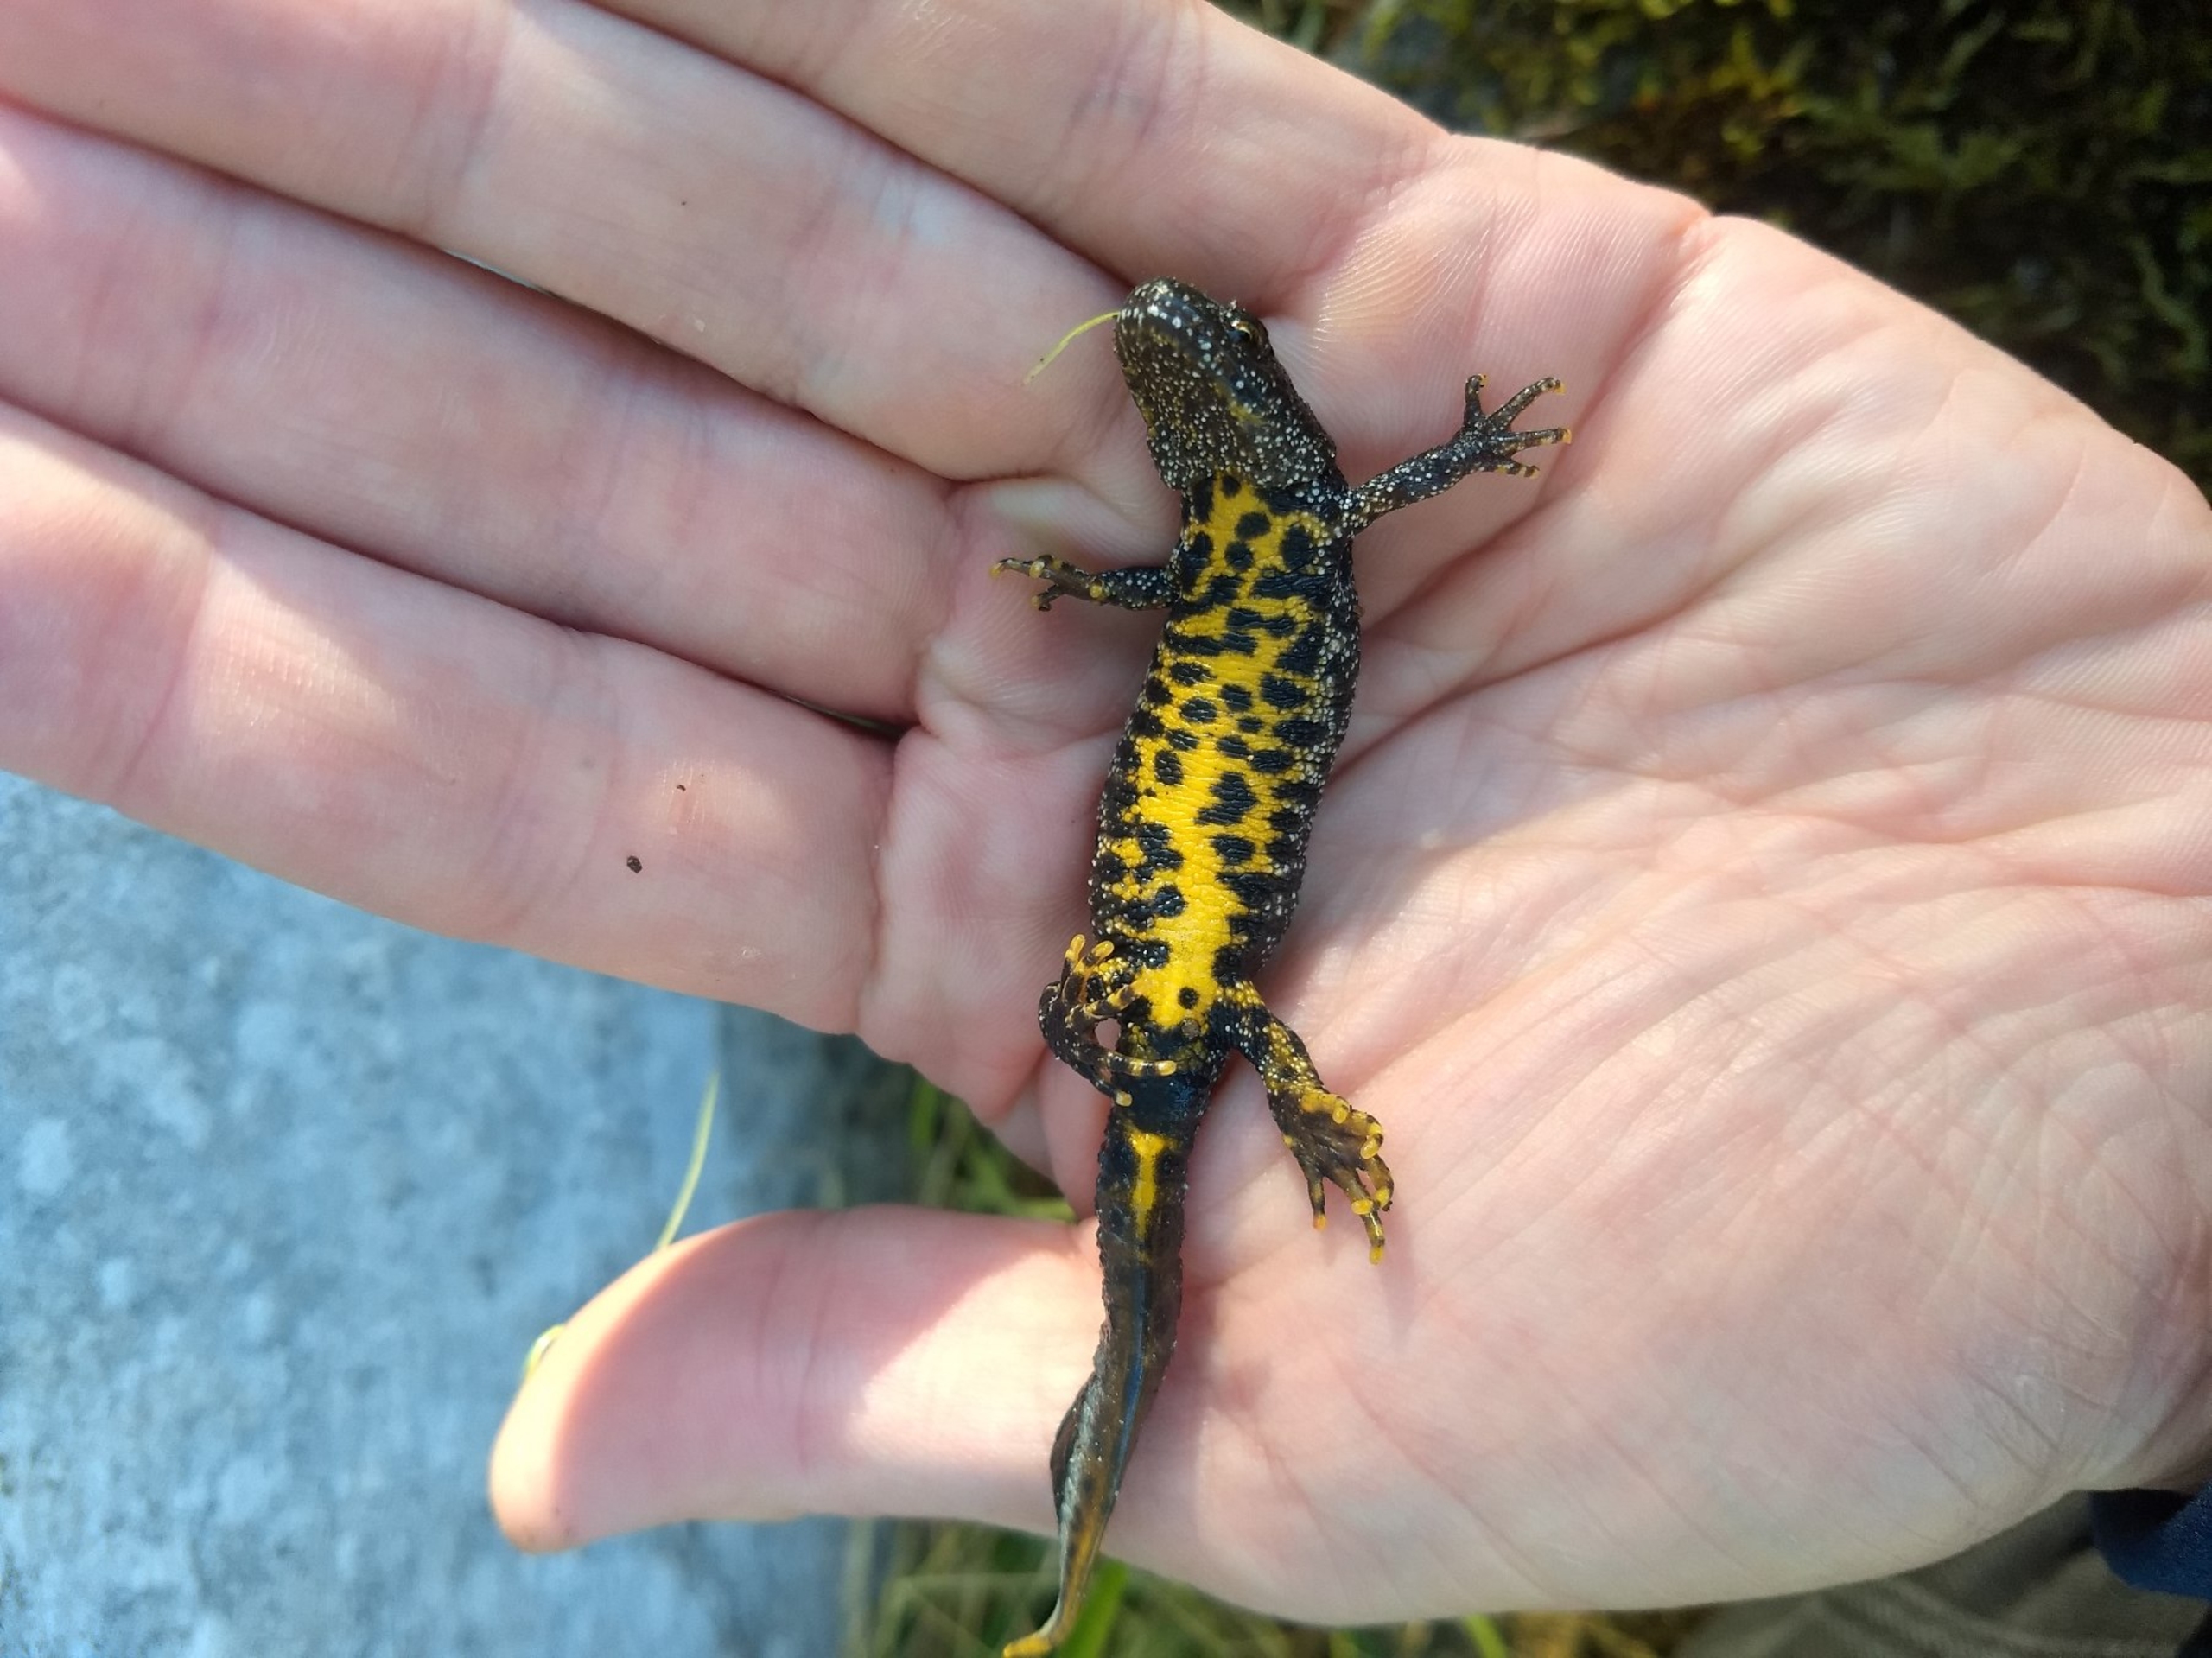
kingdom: Animalia
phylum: Chordata
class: Amphibia
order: Caudata
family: Salamandridae
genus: Triturus
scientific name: Triturus cristatus
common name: Stor vandsalamander
